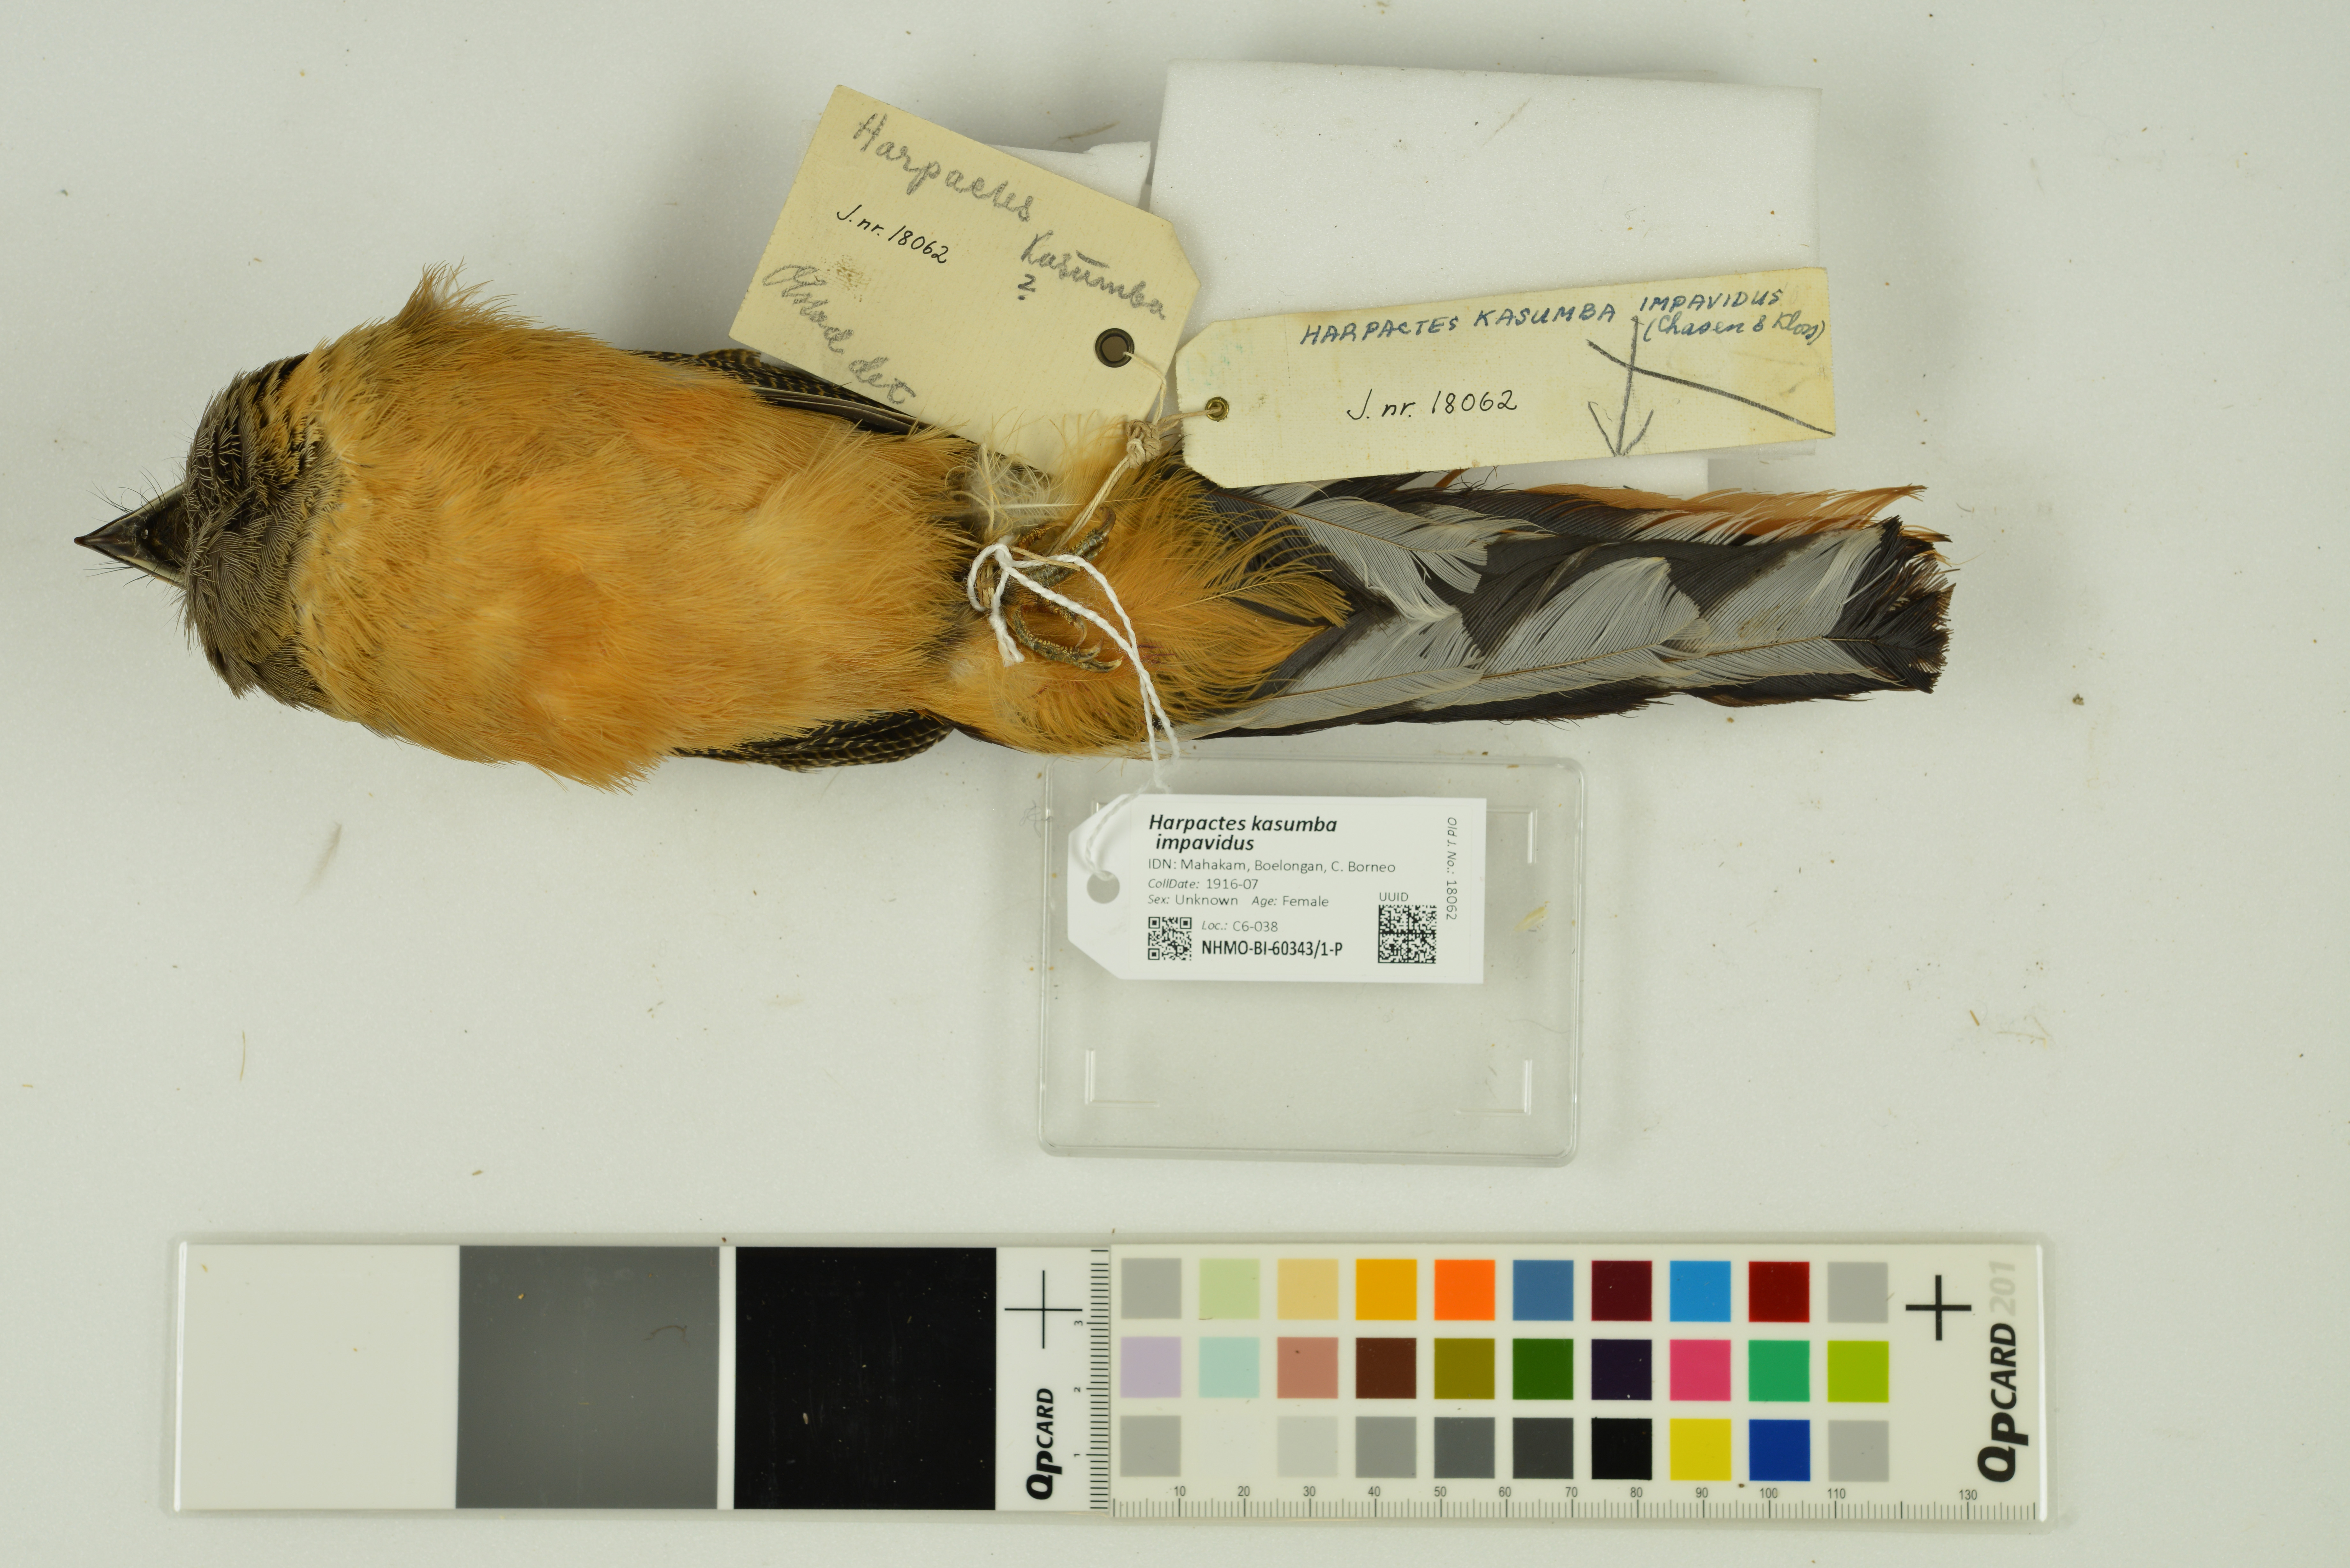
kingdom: Animalia
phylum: Chordata
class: Aves
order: Trogoniformes
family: Trogonidae
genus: Harpactes
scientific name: Harpactes kasumba
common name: Red-naped trogon
